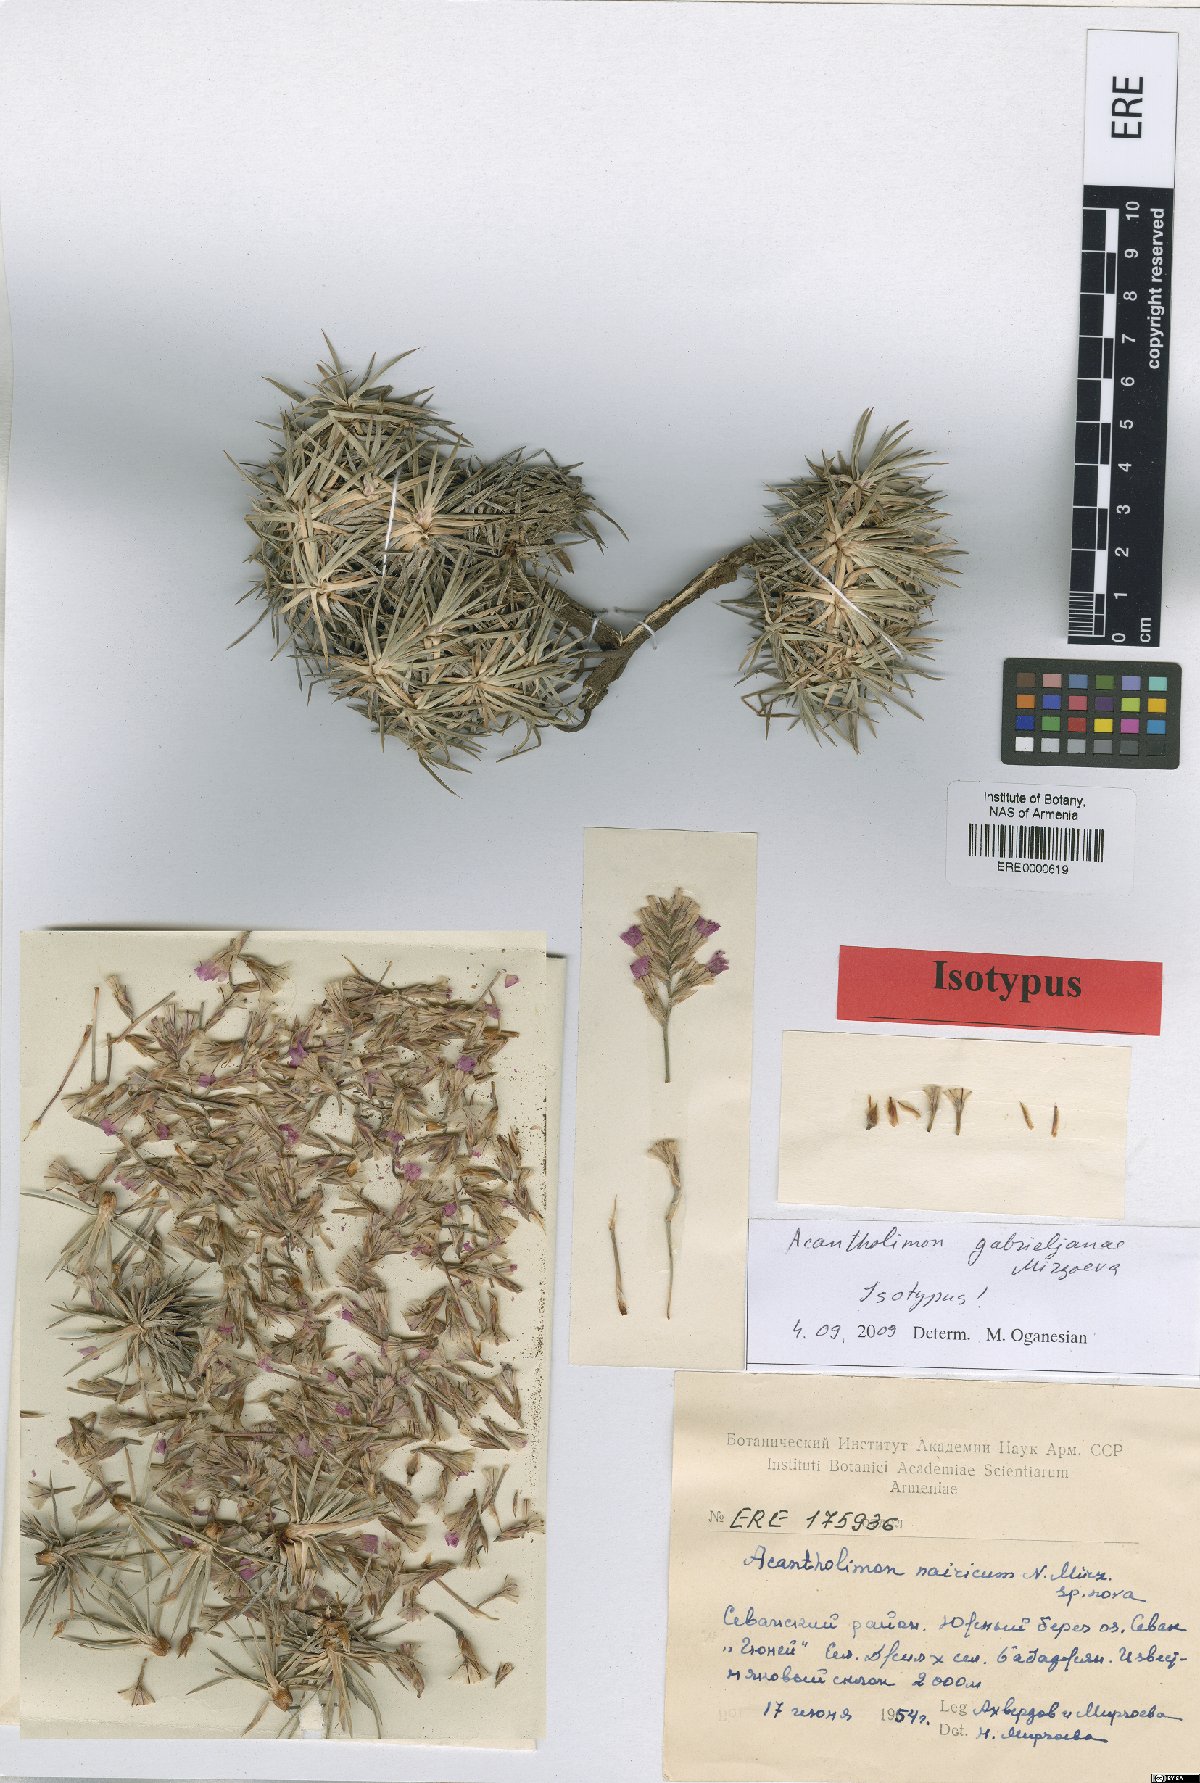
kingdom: Plantae
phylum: Tracheophyta
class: Magnoliopsida
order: Caryophyllales
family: Plumbaginaceae
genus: Acantholimon
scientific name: Acantholimon gabrieljaniae
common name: Gabrielyan's prickly-thrift
